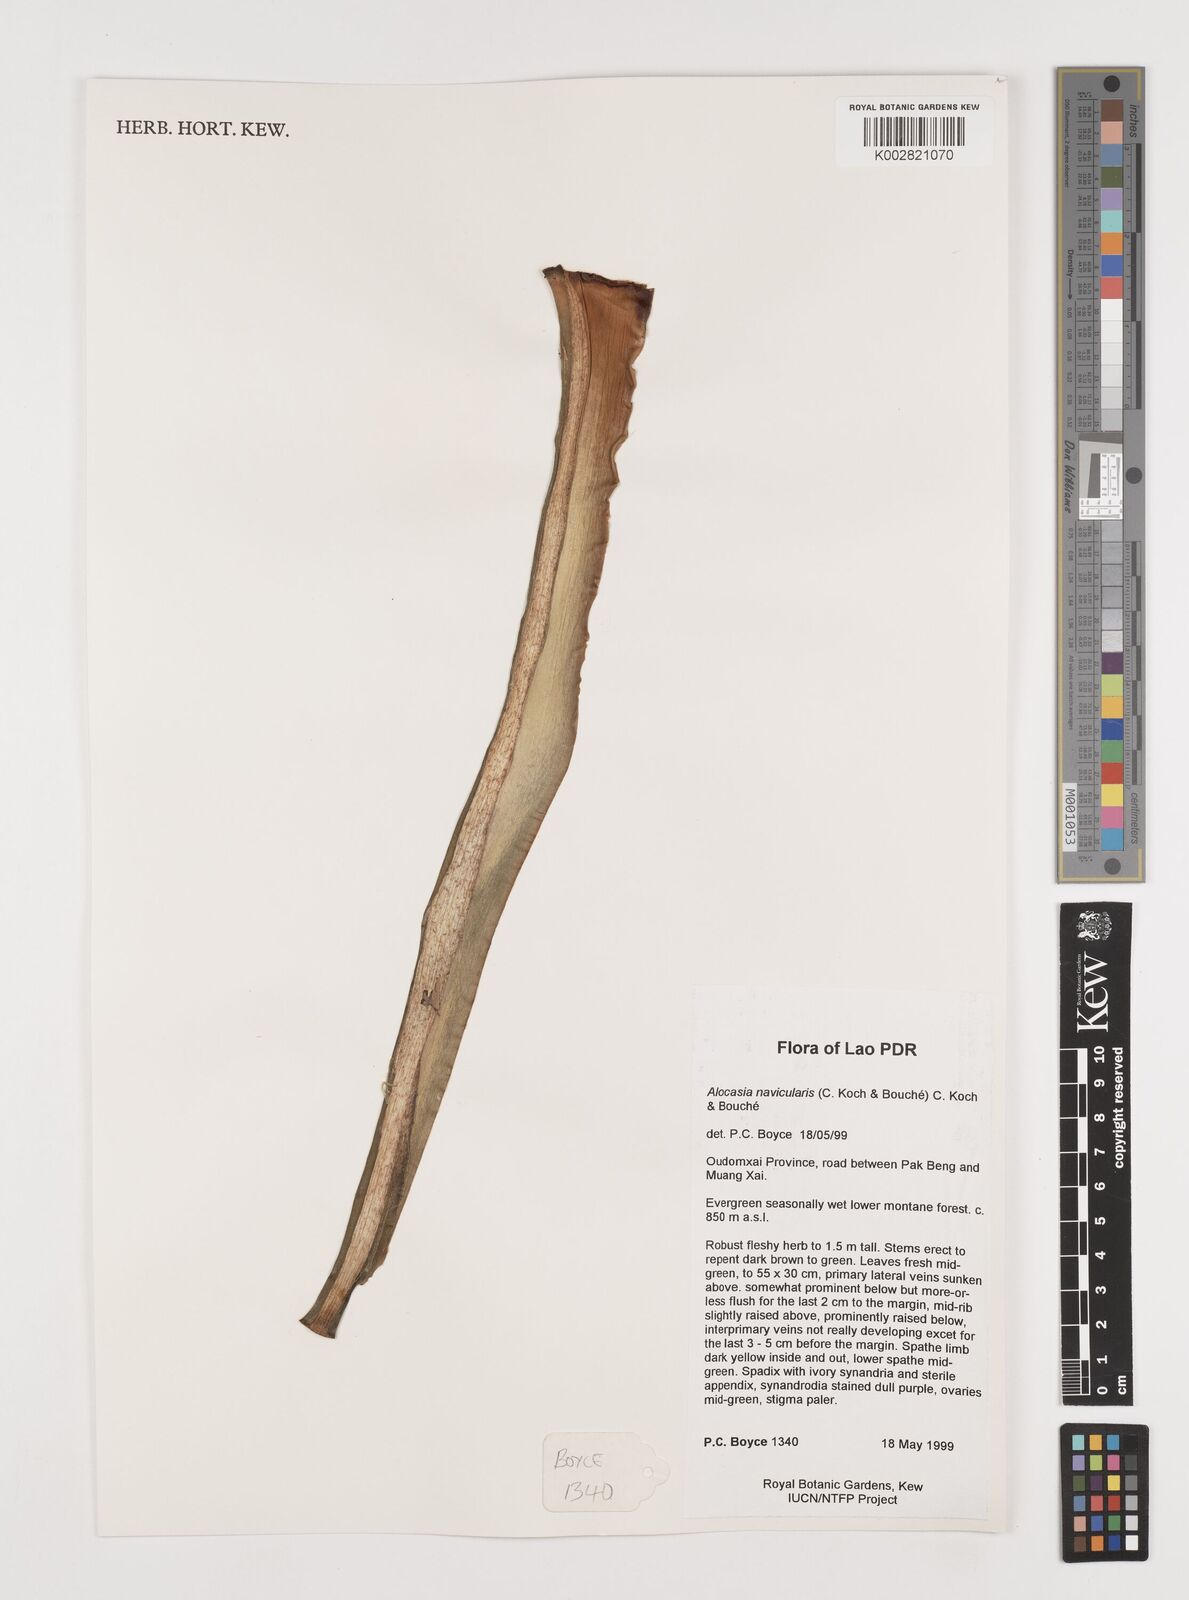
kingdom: Plantae
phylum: Tracheophyta
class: Liliopsida
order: Alismatales
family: Araceae
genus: Alocasia
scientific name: Alocasia navicularis
